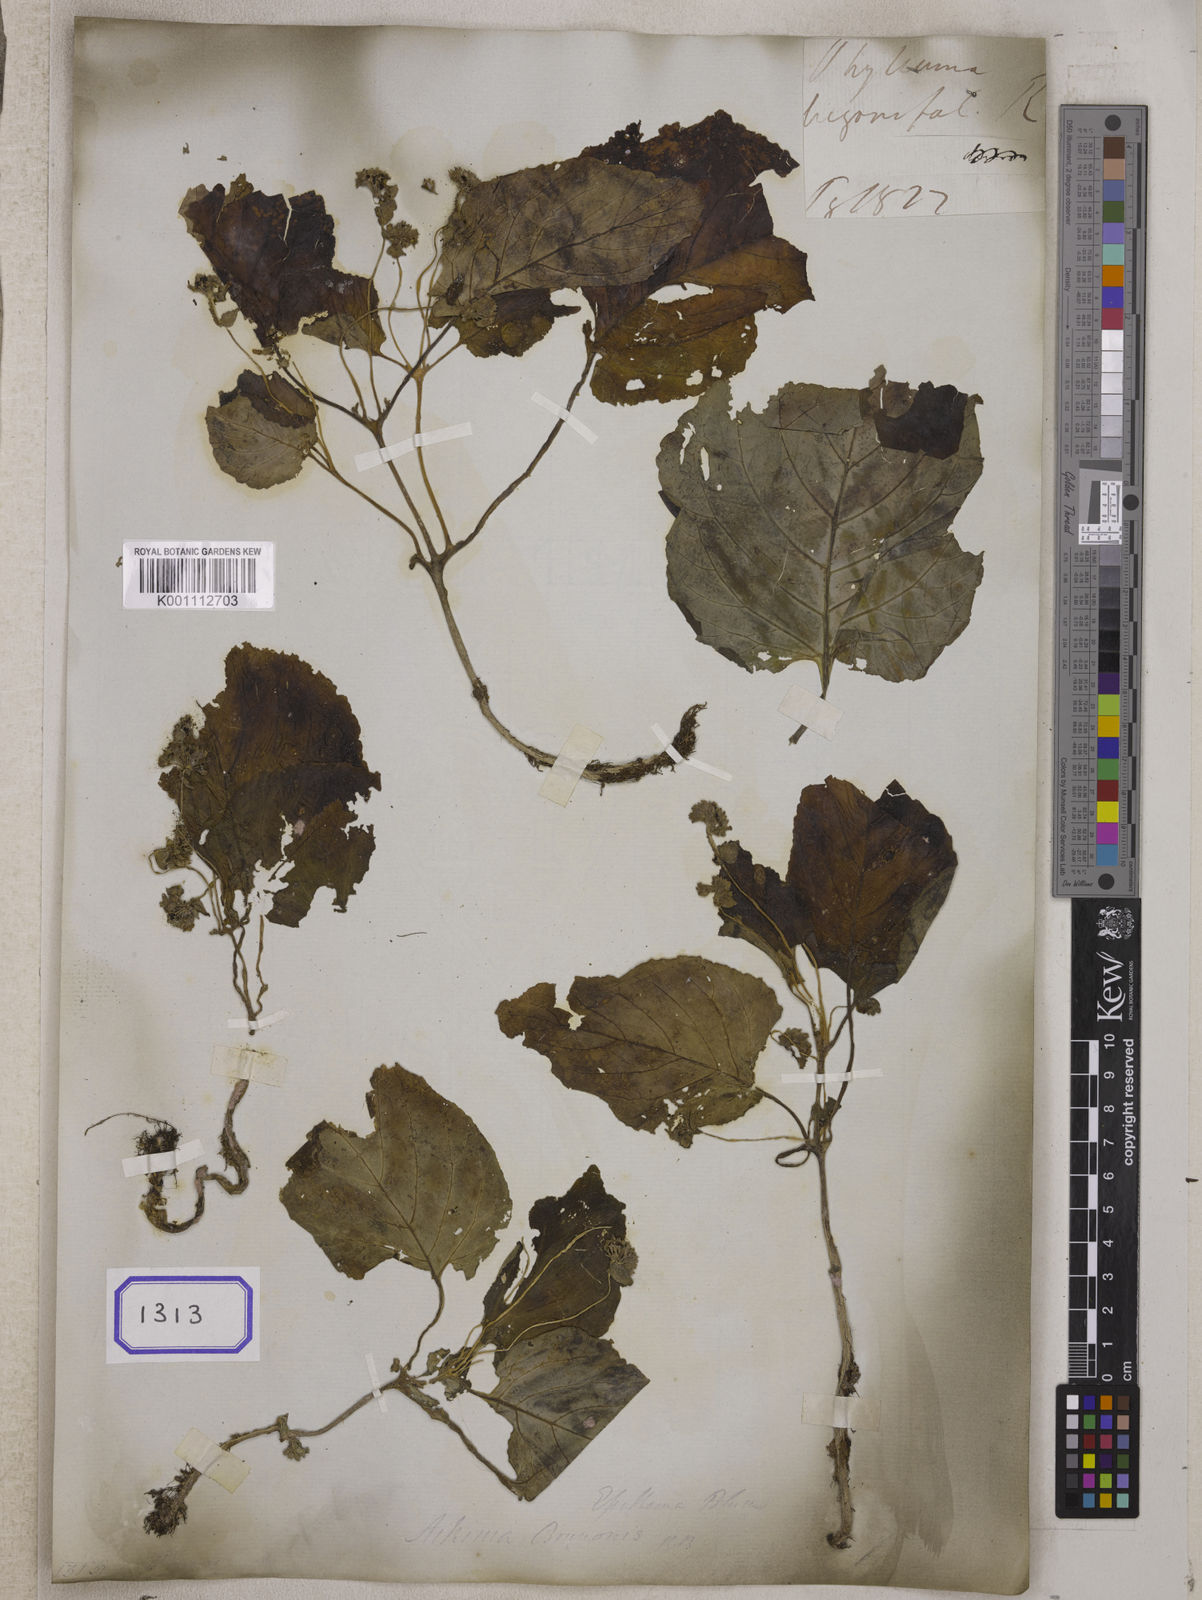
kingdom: Plantae
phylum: Tracheophyta
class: Magnoliopsida
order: Asterales
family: Pentaphragmataceae
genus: Pentaphragma
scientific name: Pentaphragma begoniifolium
